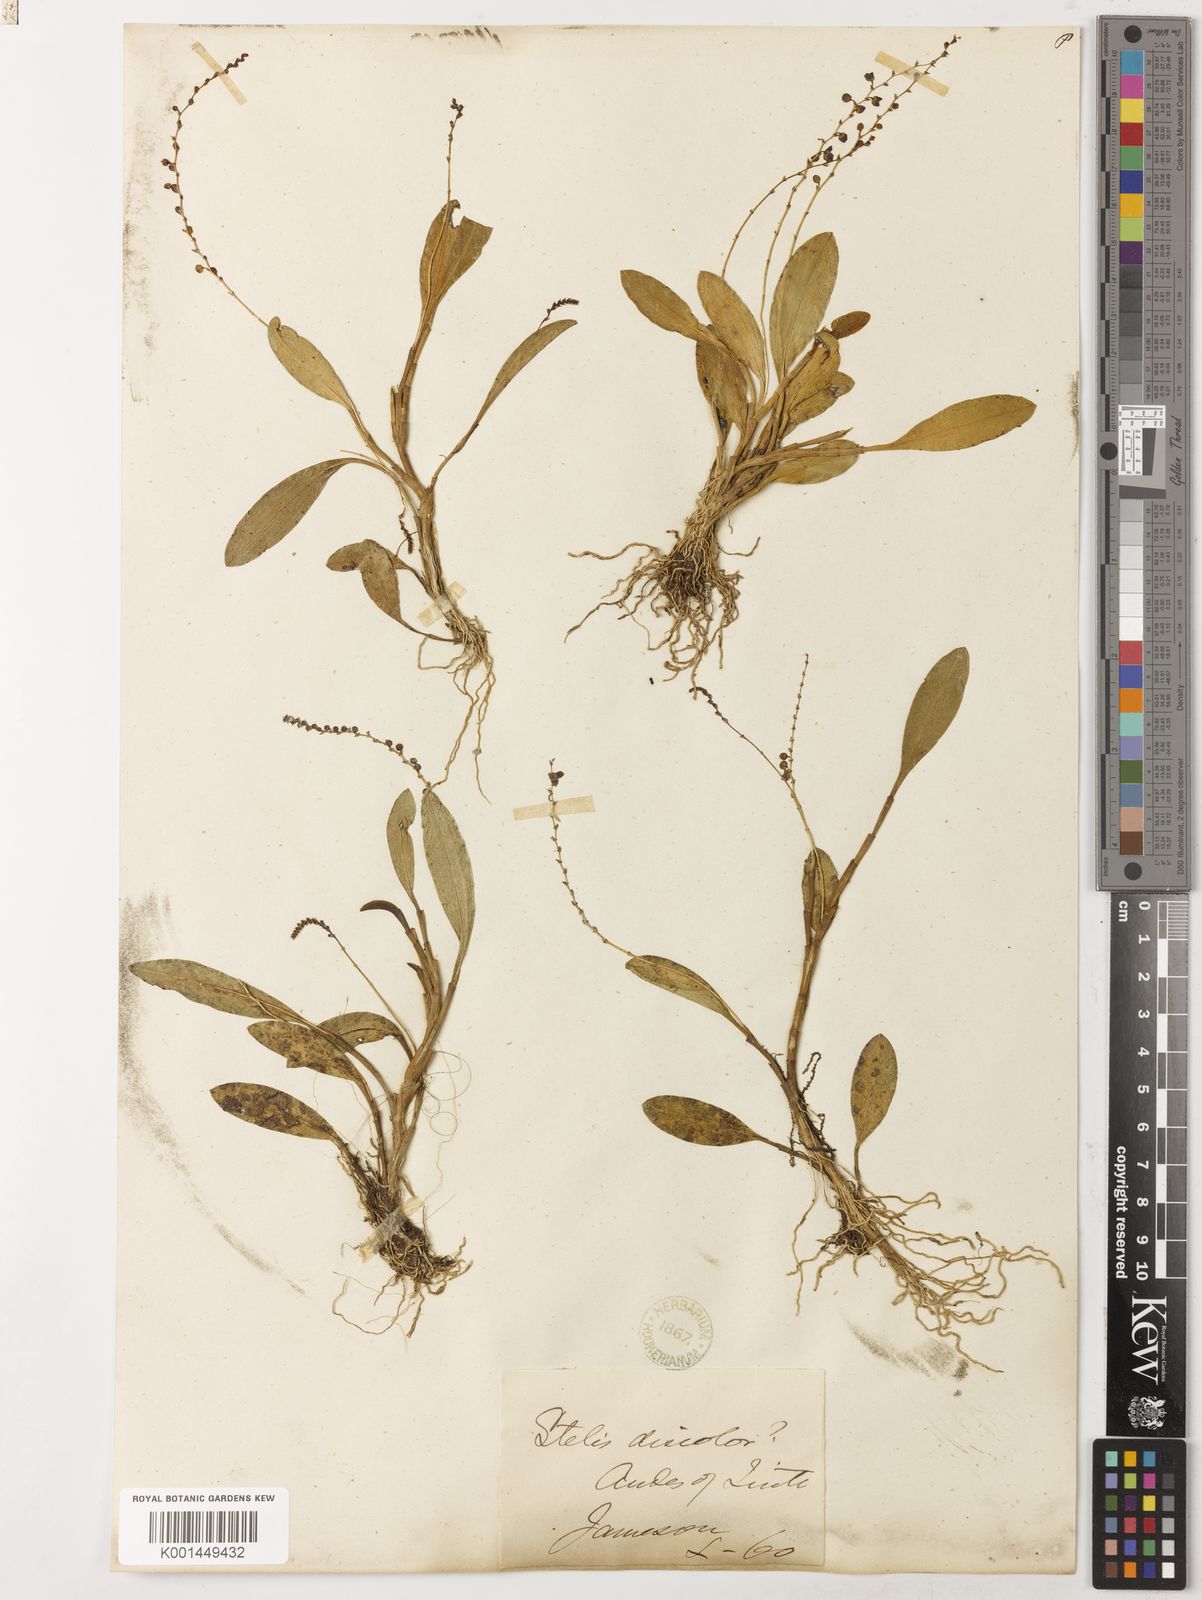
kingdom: Plantae
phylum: Tracheophyta
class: Liliopsida
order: Asparagales
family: Orchidaceae
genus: Stelis
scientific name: Stelis discolor
